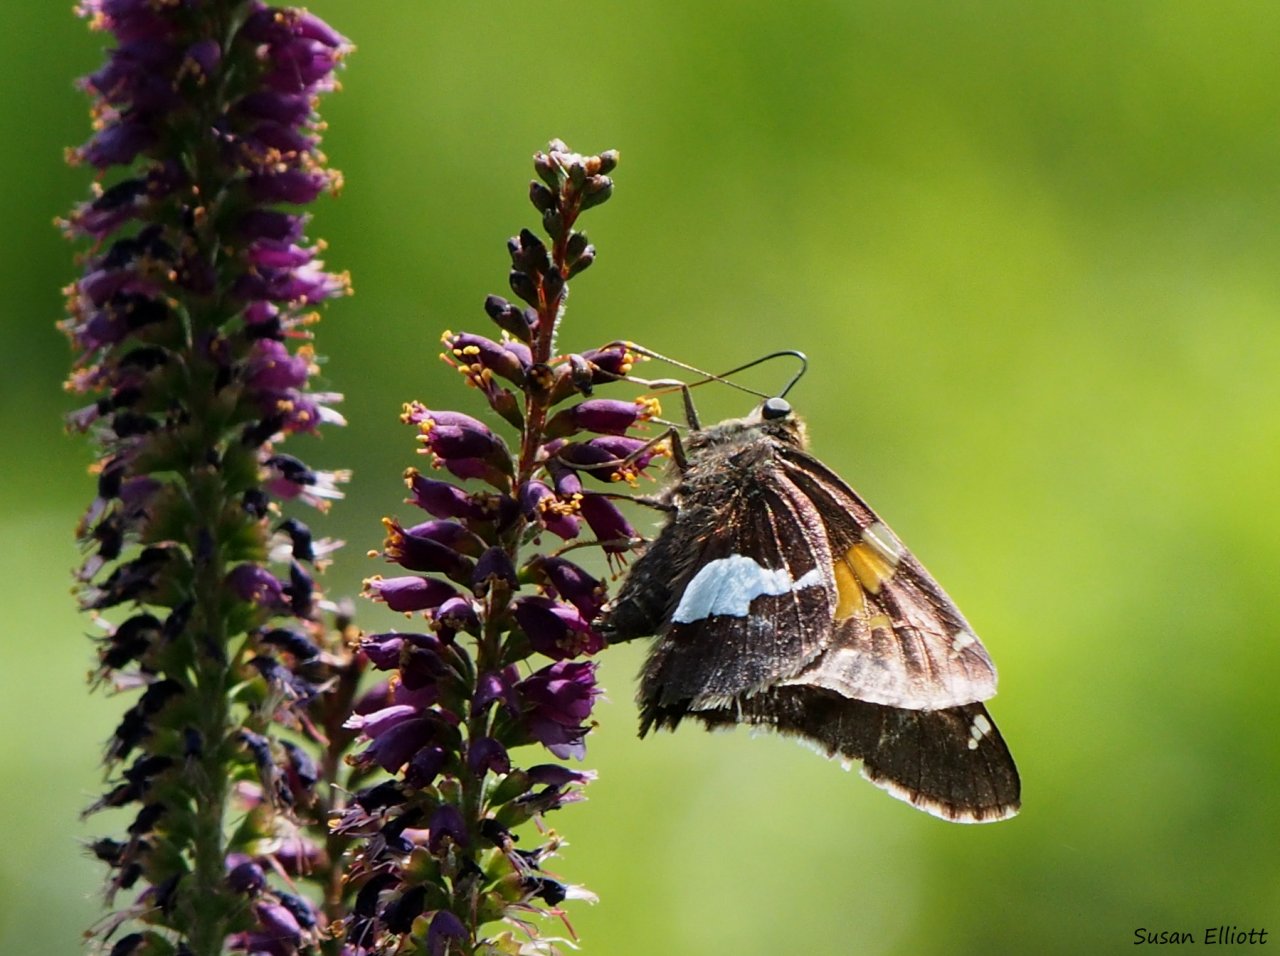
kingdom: Animalia
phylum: Arthropoda
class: Insecta
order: Lepidoptera
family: Hesperiidae
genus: Epargyreus
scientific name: Epargyreus clarus
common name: Silver-spotted Skipper
